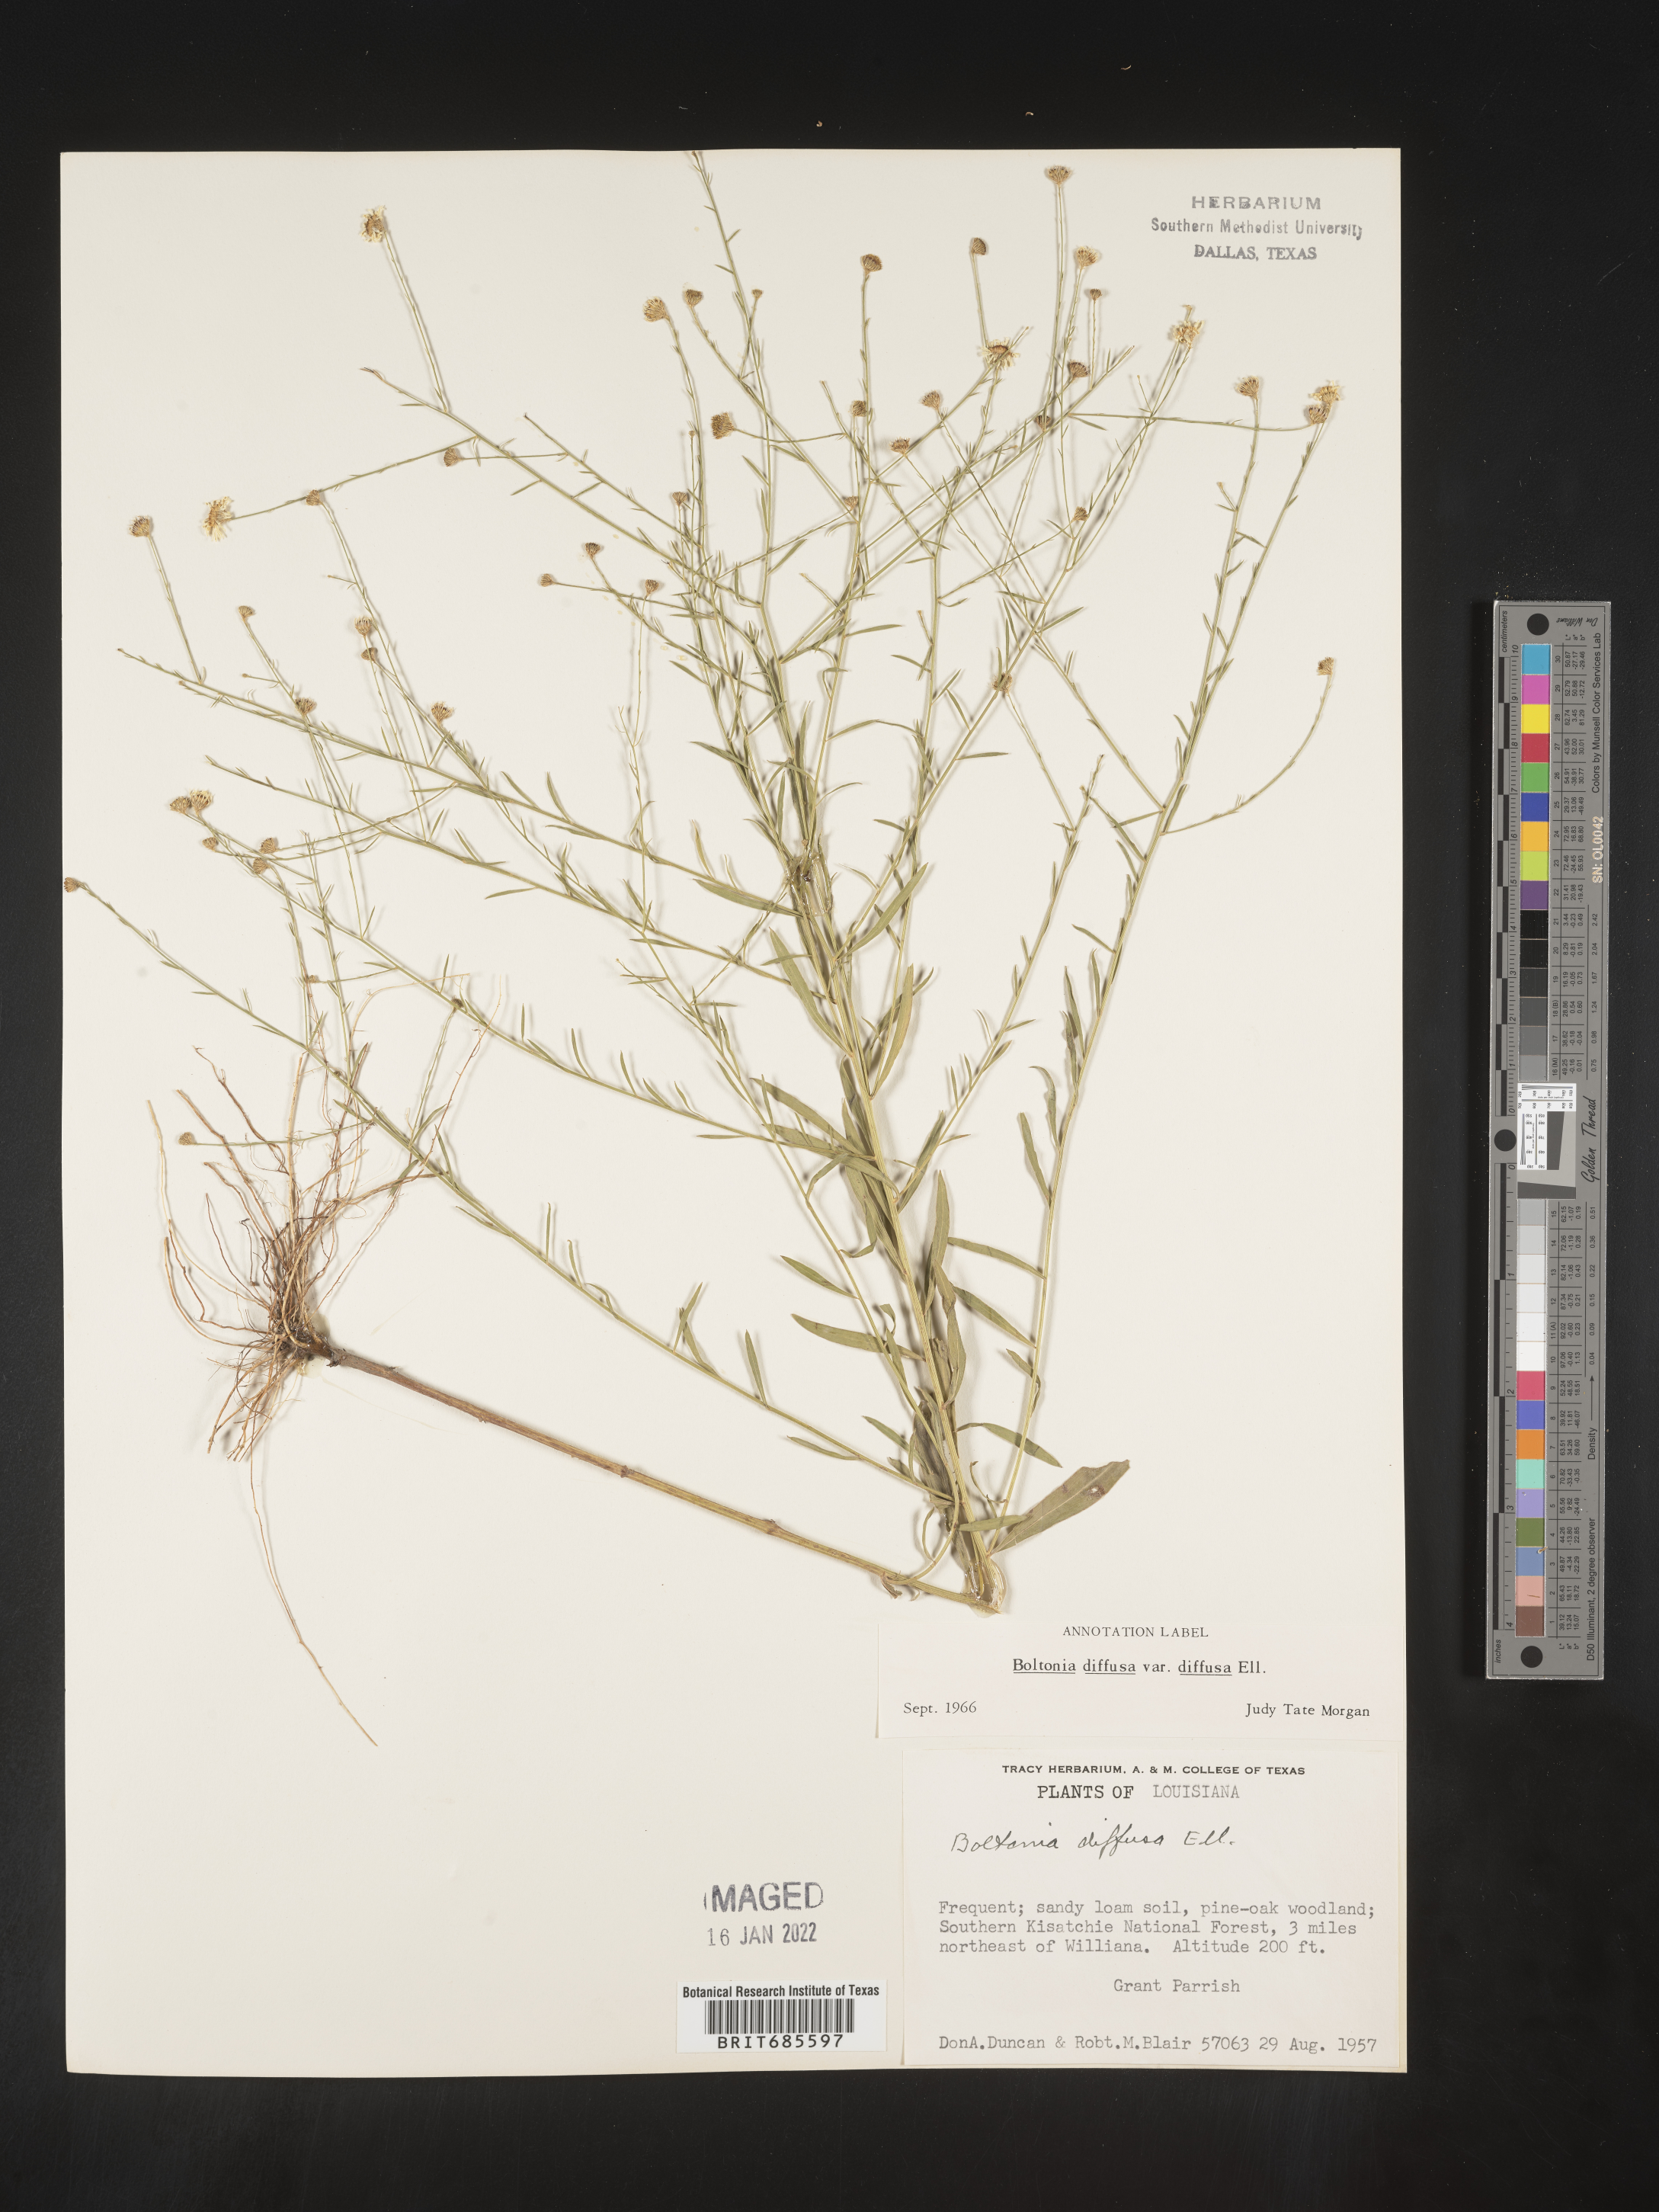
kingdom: Plantae
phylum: Tracheophyta
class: Magnoliopsida
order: Asterales
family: Asteraceae
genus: Boltonia
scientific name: Boltonia diffusa
